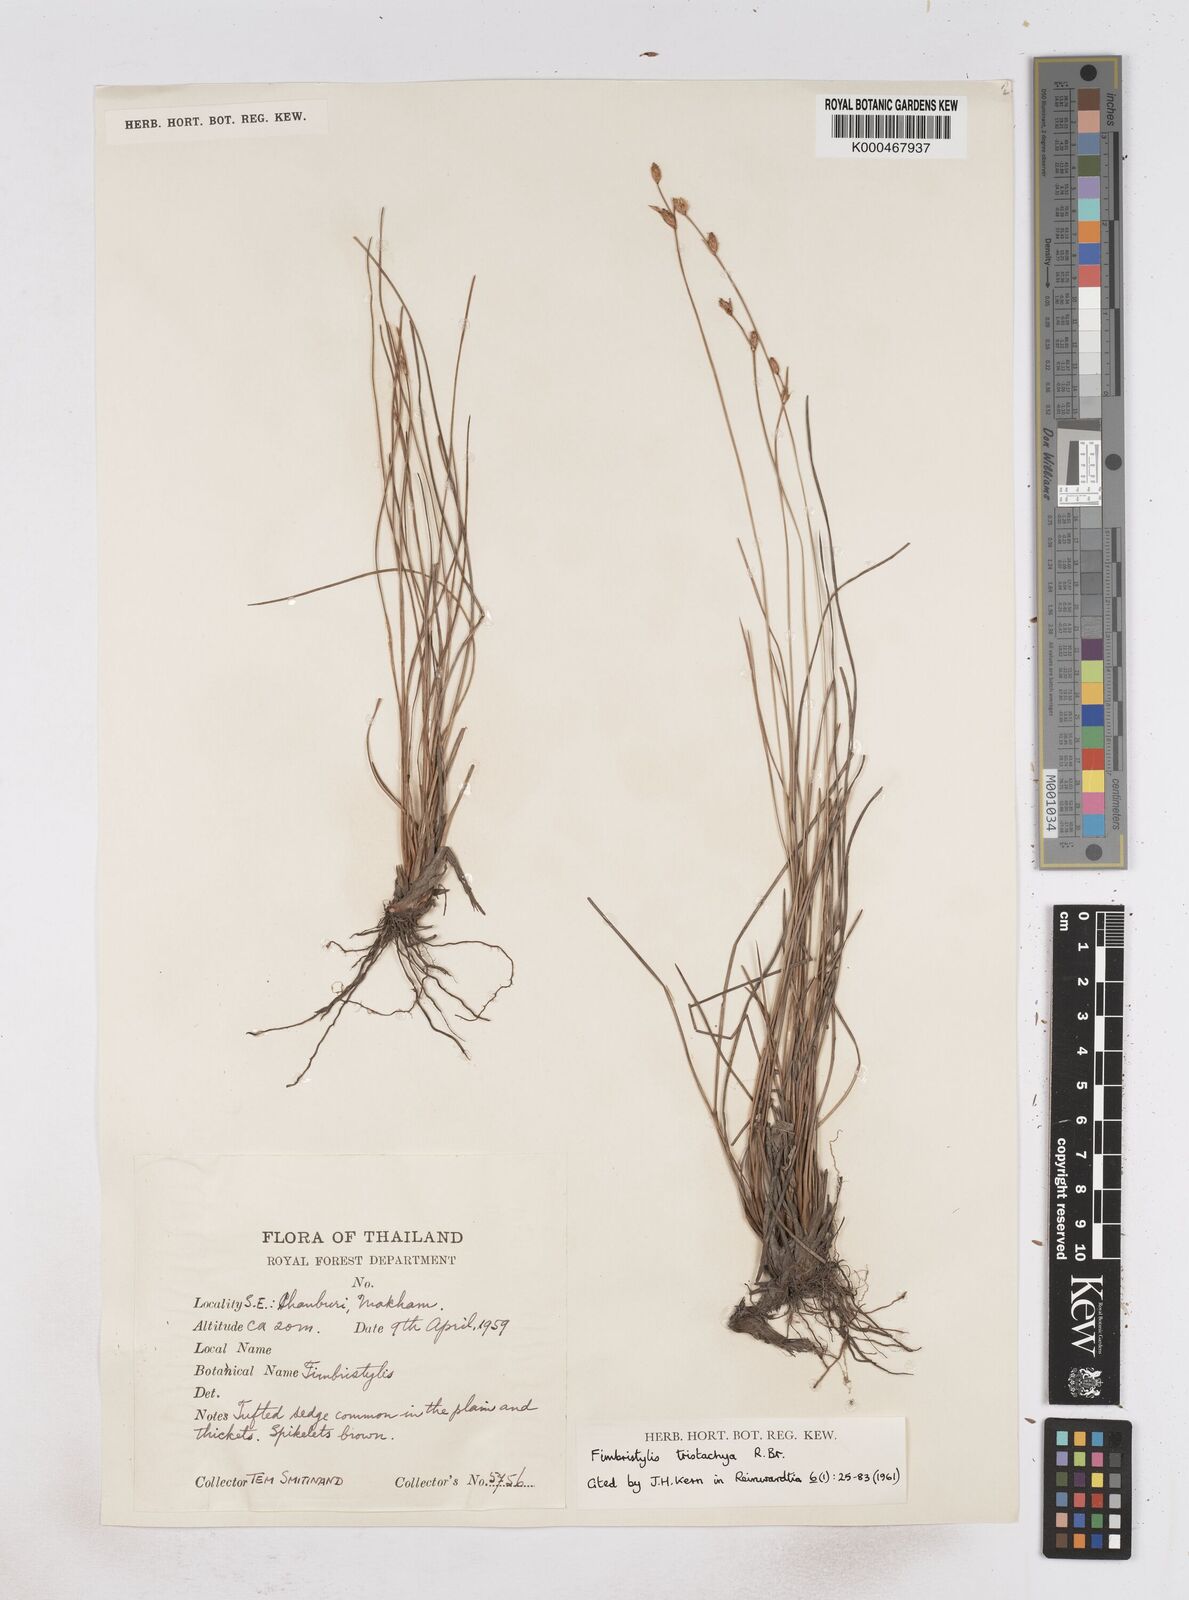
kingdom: Plantae
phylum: Tracheophyta
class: Liliopsida
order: Poales
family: Cyperaceae
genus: Fimbristylis
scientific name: Fimbristylis tristachya
